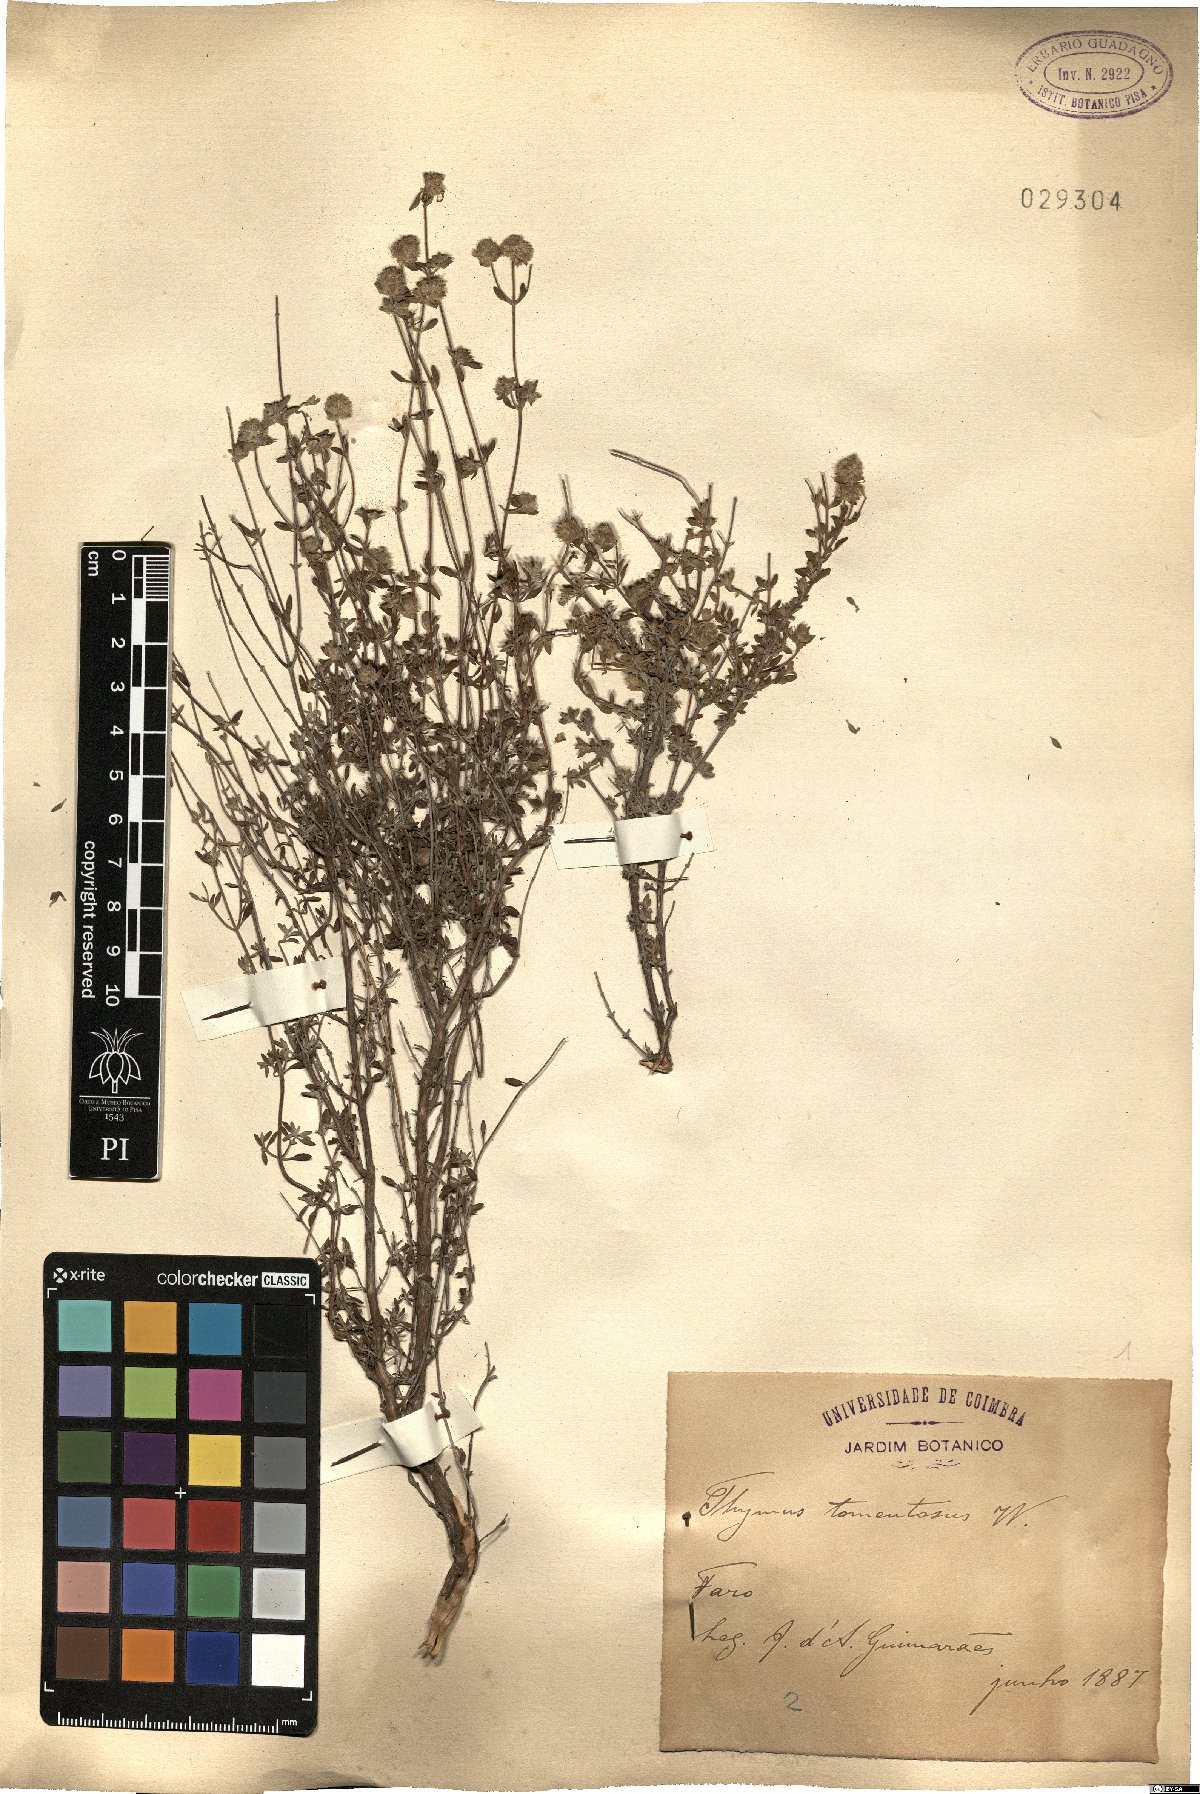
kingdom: Plantae
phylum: Tracheophyta
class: Magnoliopsida
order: Lamiales
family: Lamiaceae
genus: Thymus
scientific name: Thymus mastichina
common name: Mastic thyme
